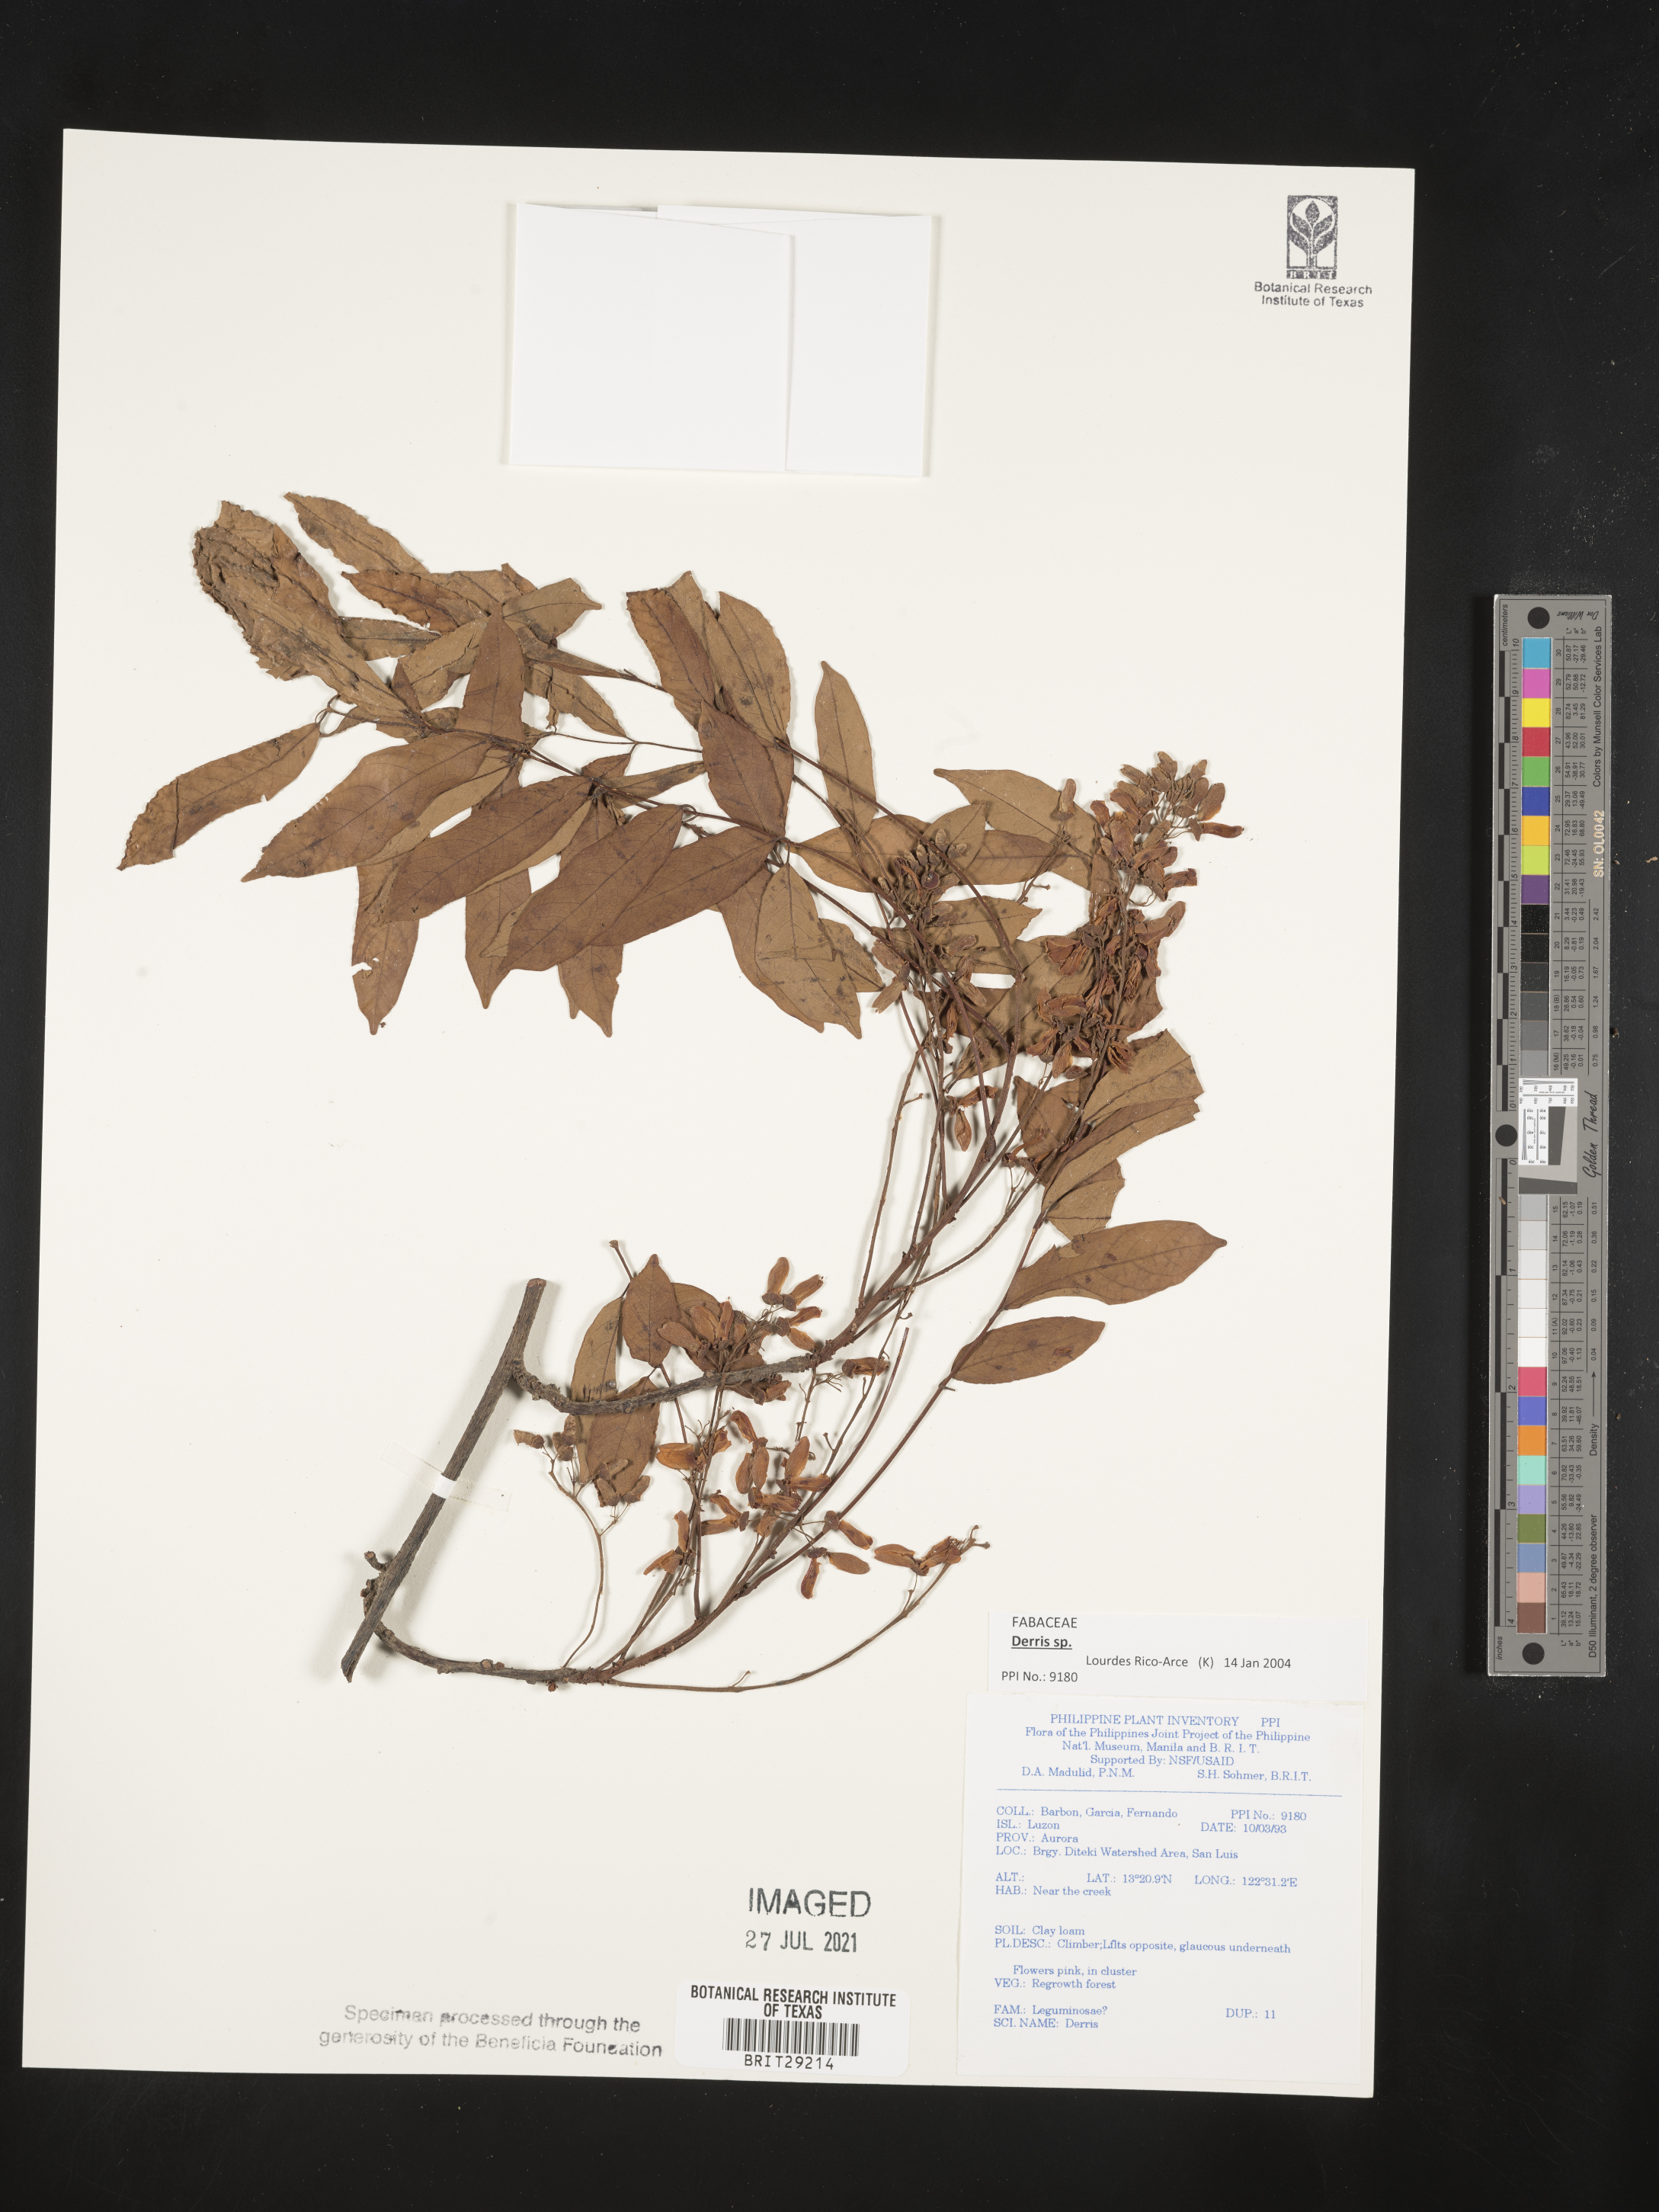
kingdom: Plantae
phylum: Tracheophyta
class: Magnoliopsida
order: Fabales
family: Fabaceae
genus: Derris
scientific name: Derris
